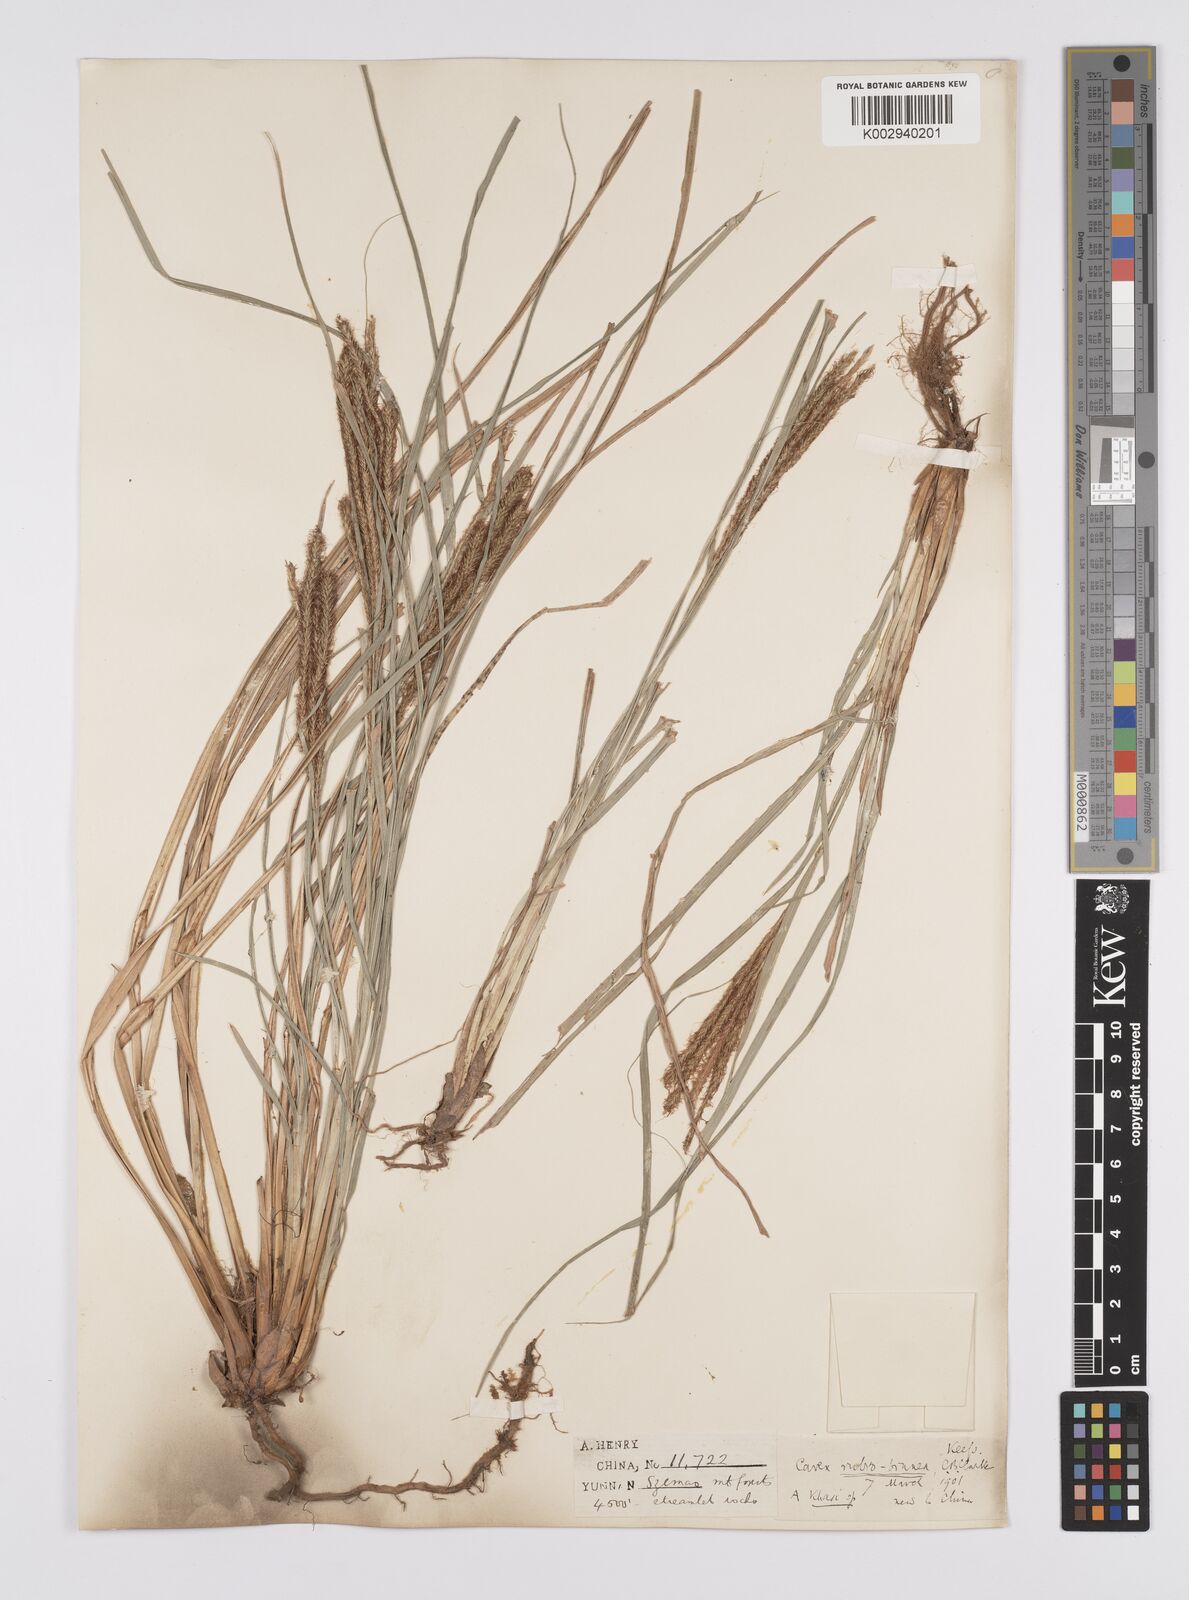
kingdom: Plantae
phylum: Tracheophyta
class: Liliopsida
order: Poales
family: Cyperaceae
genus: Carex
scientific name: Carex rubrobrunnea
